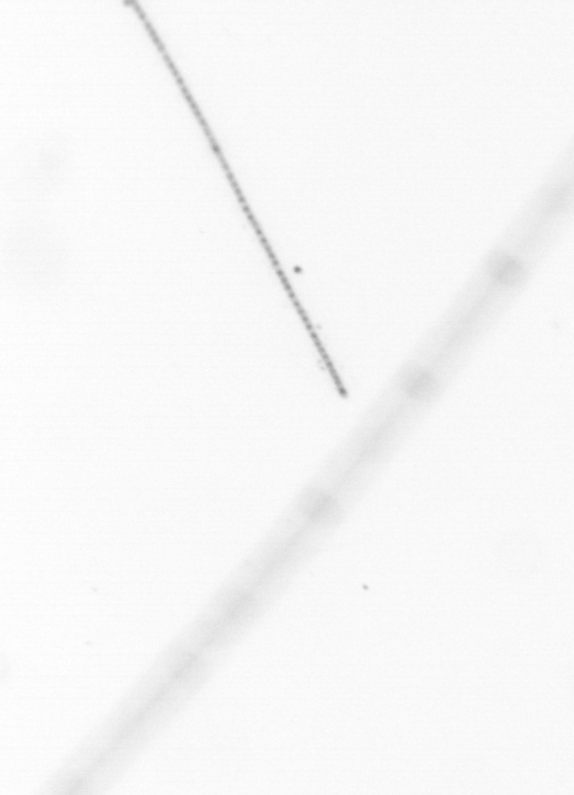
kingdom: Chromista
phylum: Ochrophyta
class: Bacillariophyceae
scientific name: Bacillariophyceae
